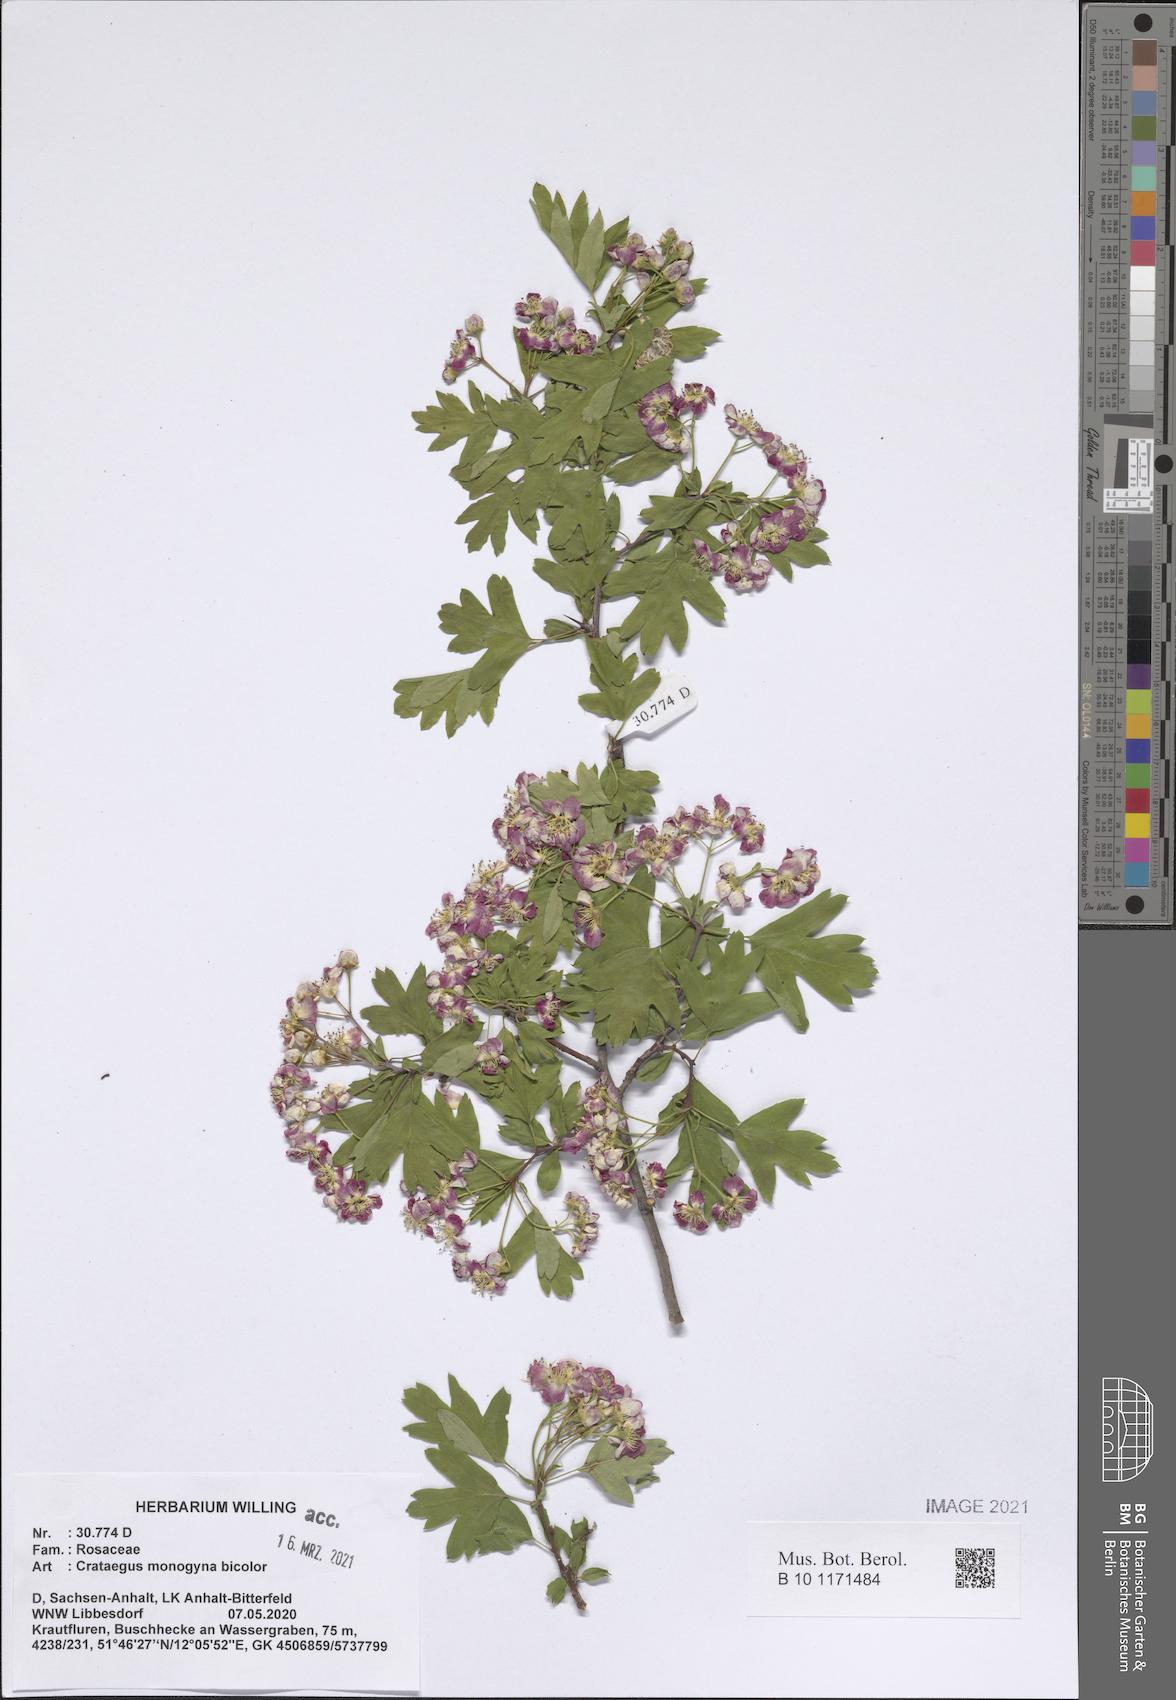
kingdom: Plantae
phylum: Tracheophyta
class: Magnoliopsida
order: Rosales
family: Rosaceae
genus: Crataegus
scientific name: Crataegus monogyna
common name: Hawthorn
